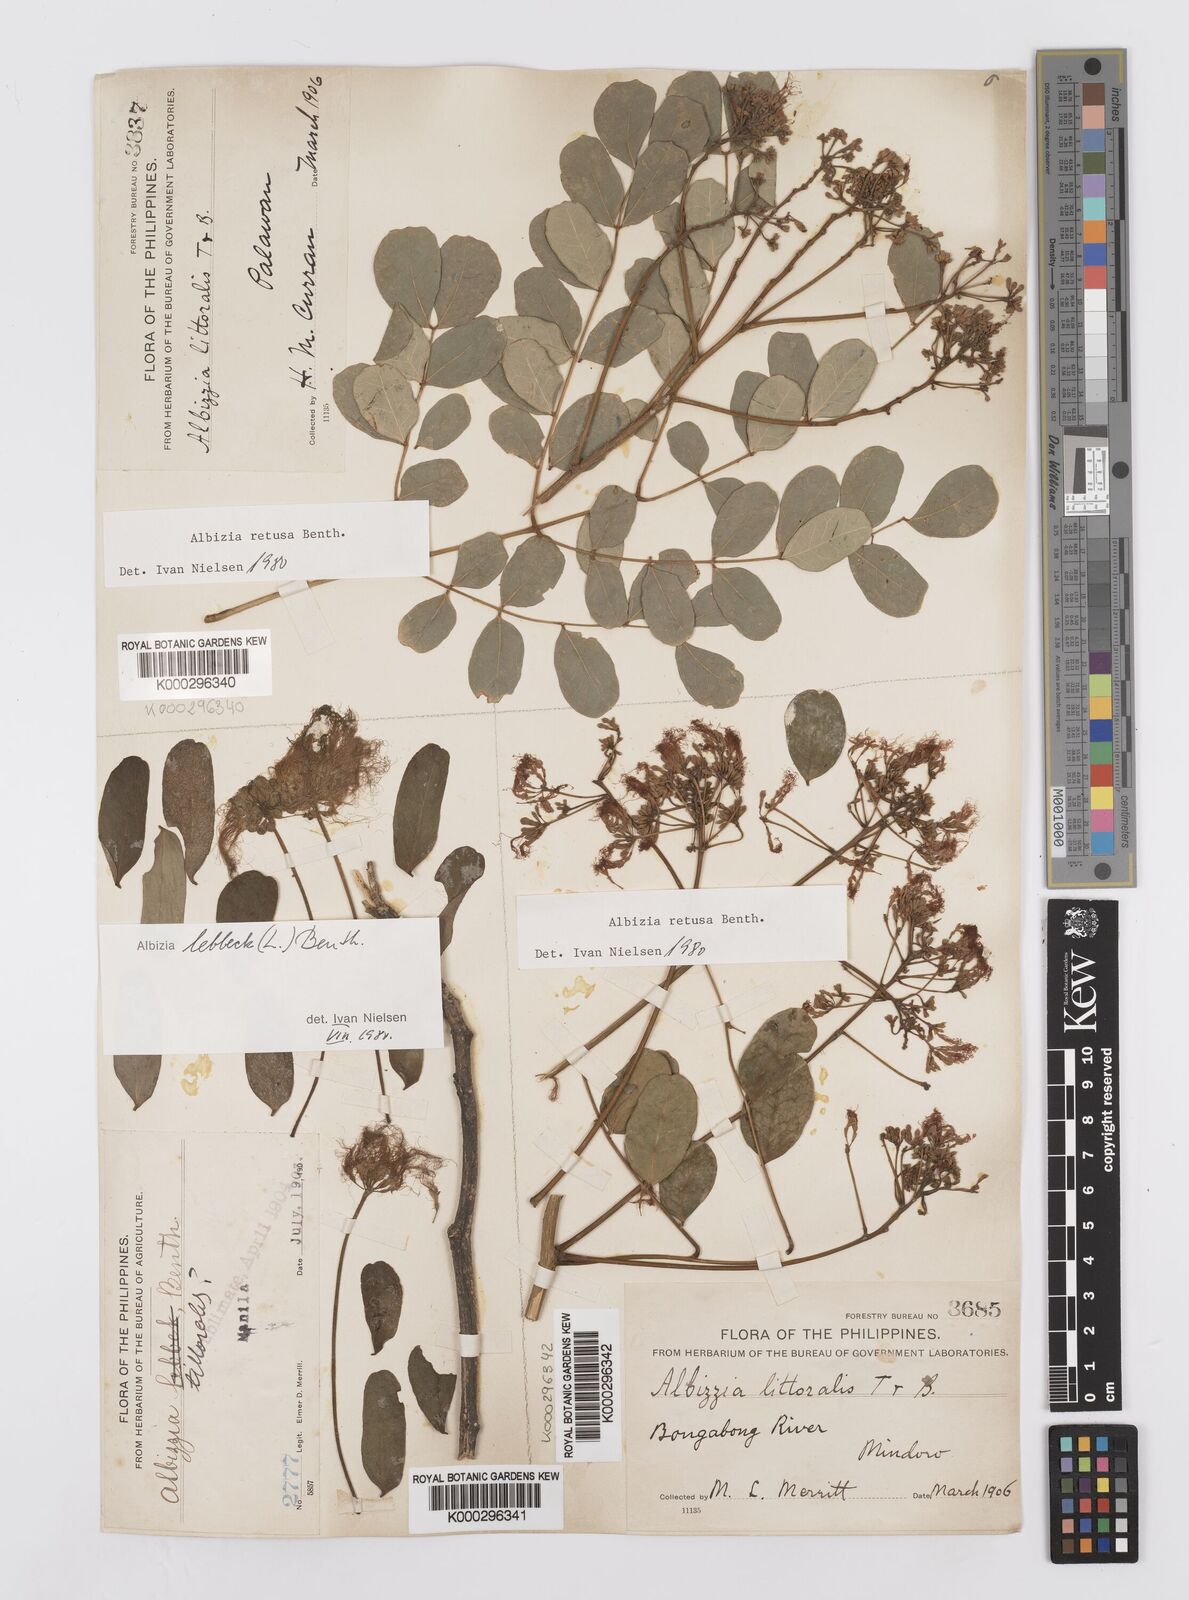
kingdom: Plantae
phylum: Tracheophyta
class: Magnoliopsida
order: Fabales
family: Fabaceae
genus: Albizia
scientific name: Albizia lebbeck
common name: Woman's tongue
